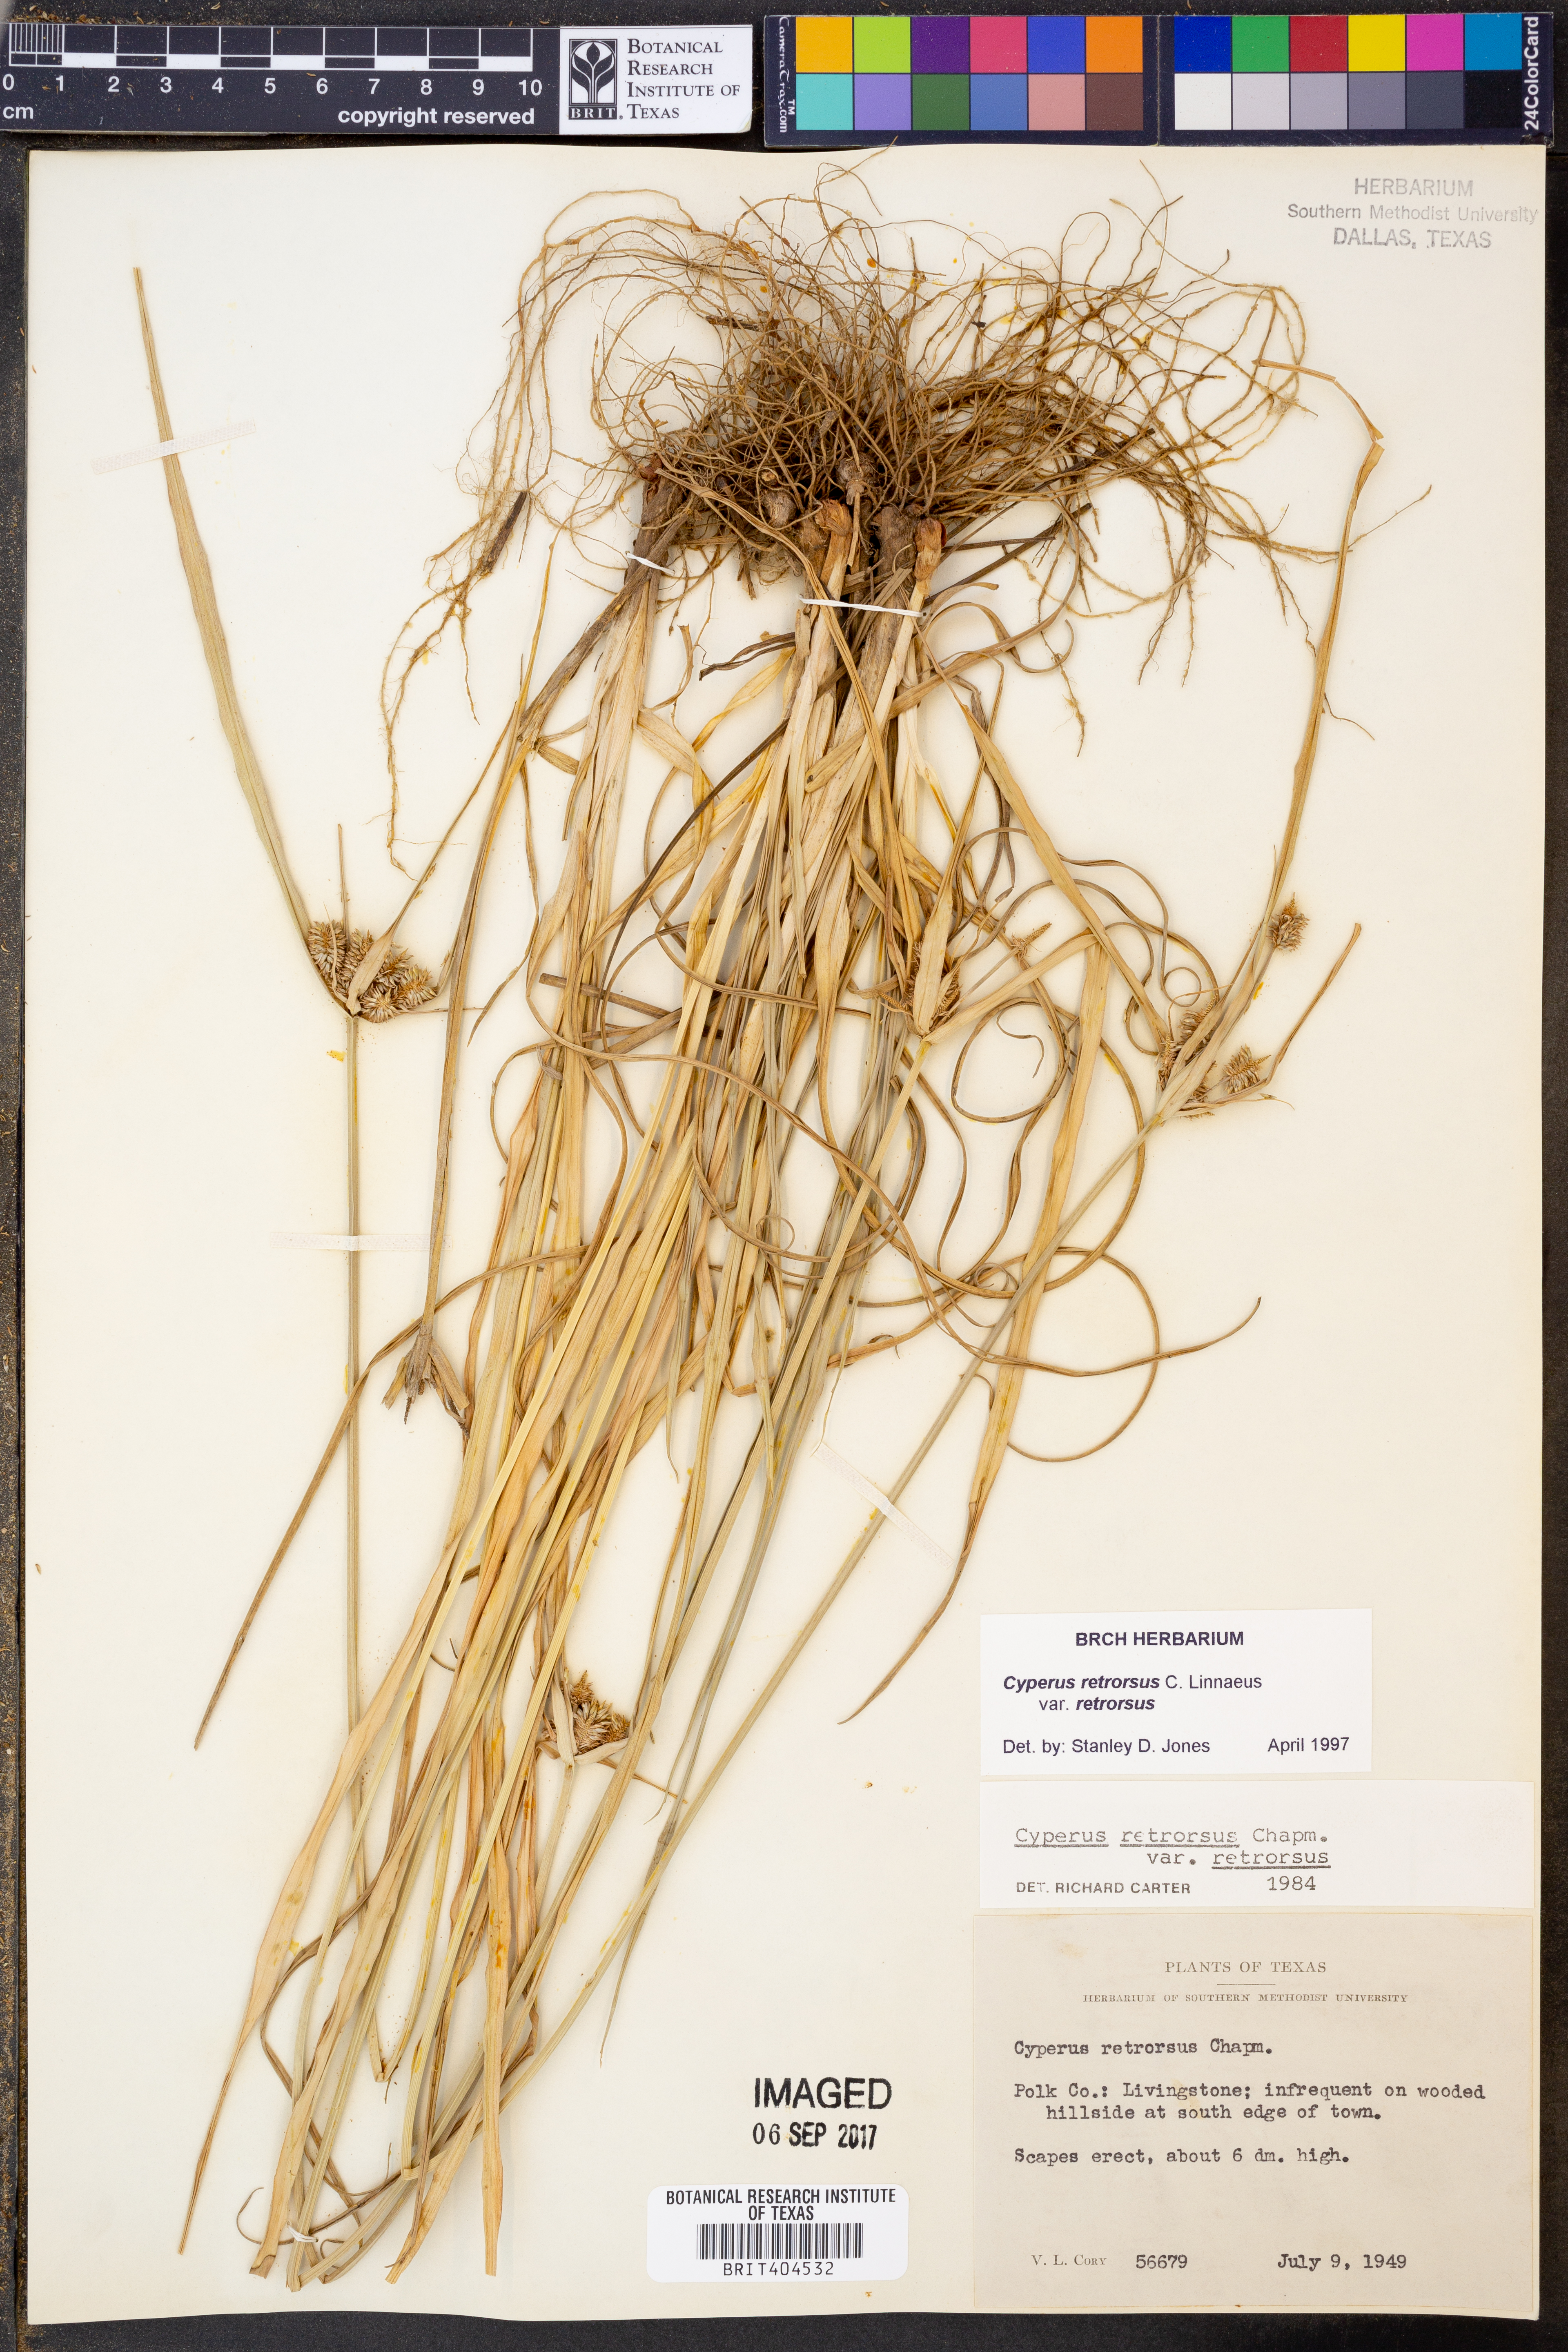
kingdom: Plantae
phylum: Tracheophyta
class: Liliopsida
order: Poales
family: Cyperaceae
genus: Cyperus
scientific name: Cyperus retrorsus
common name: Pinebarren flat sedge
